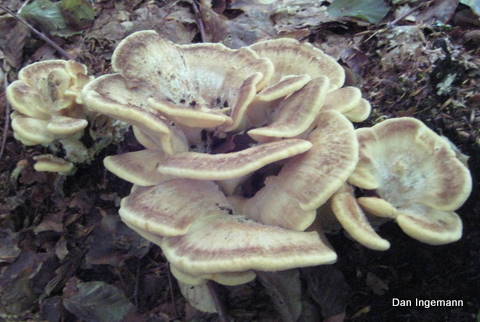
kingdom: Fungi
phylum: Basidiomycota
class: Agaricomycetes
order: Polyporales
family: Meripilaceae
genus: Meripilus
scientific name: Meripilus giganteus
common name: kæmpeporesvamp
